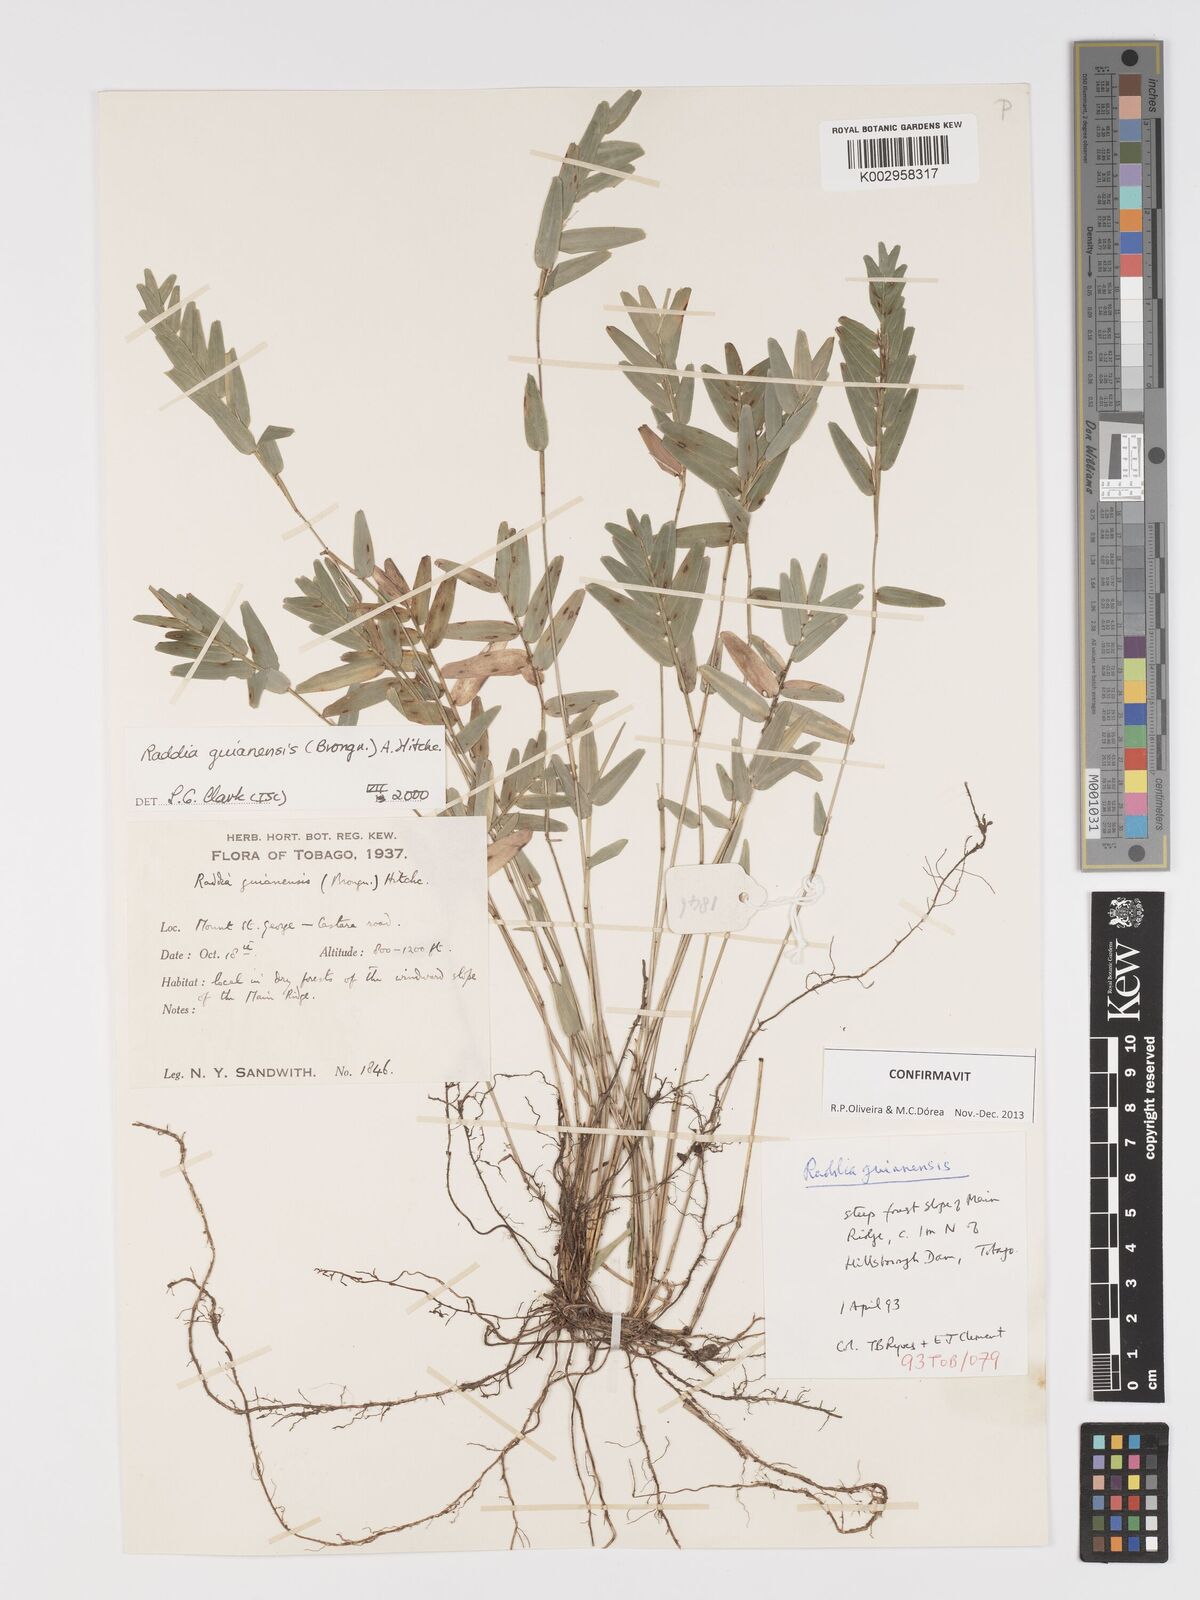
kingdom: Plantae
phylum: Tracheophyta
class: Liliopsida
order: Poales
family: Poaceae
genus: Raddia
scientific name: Raddia guianensis
